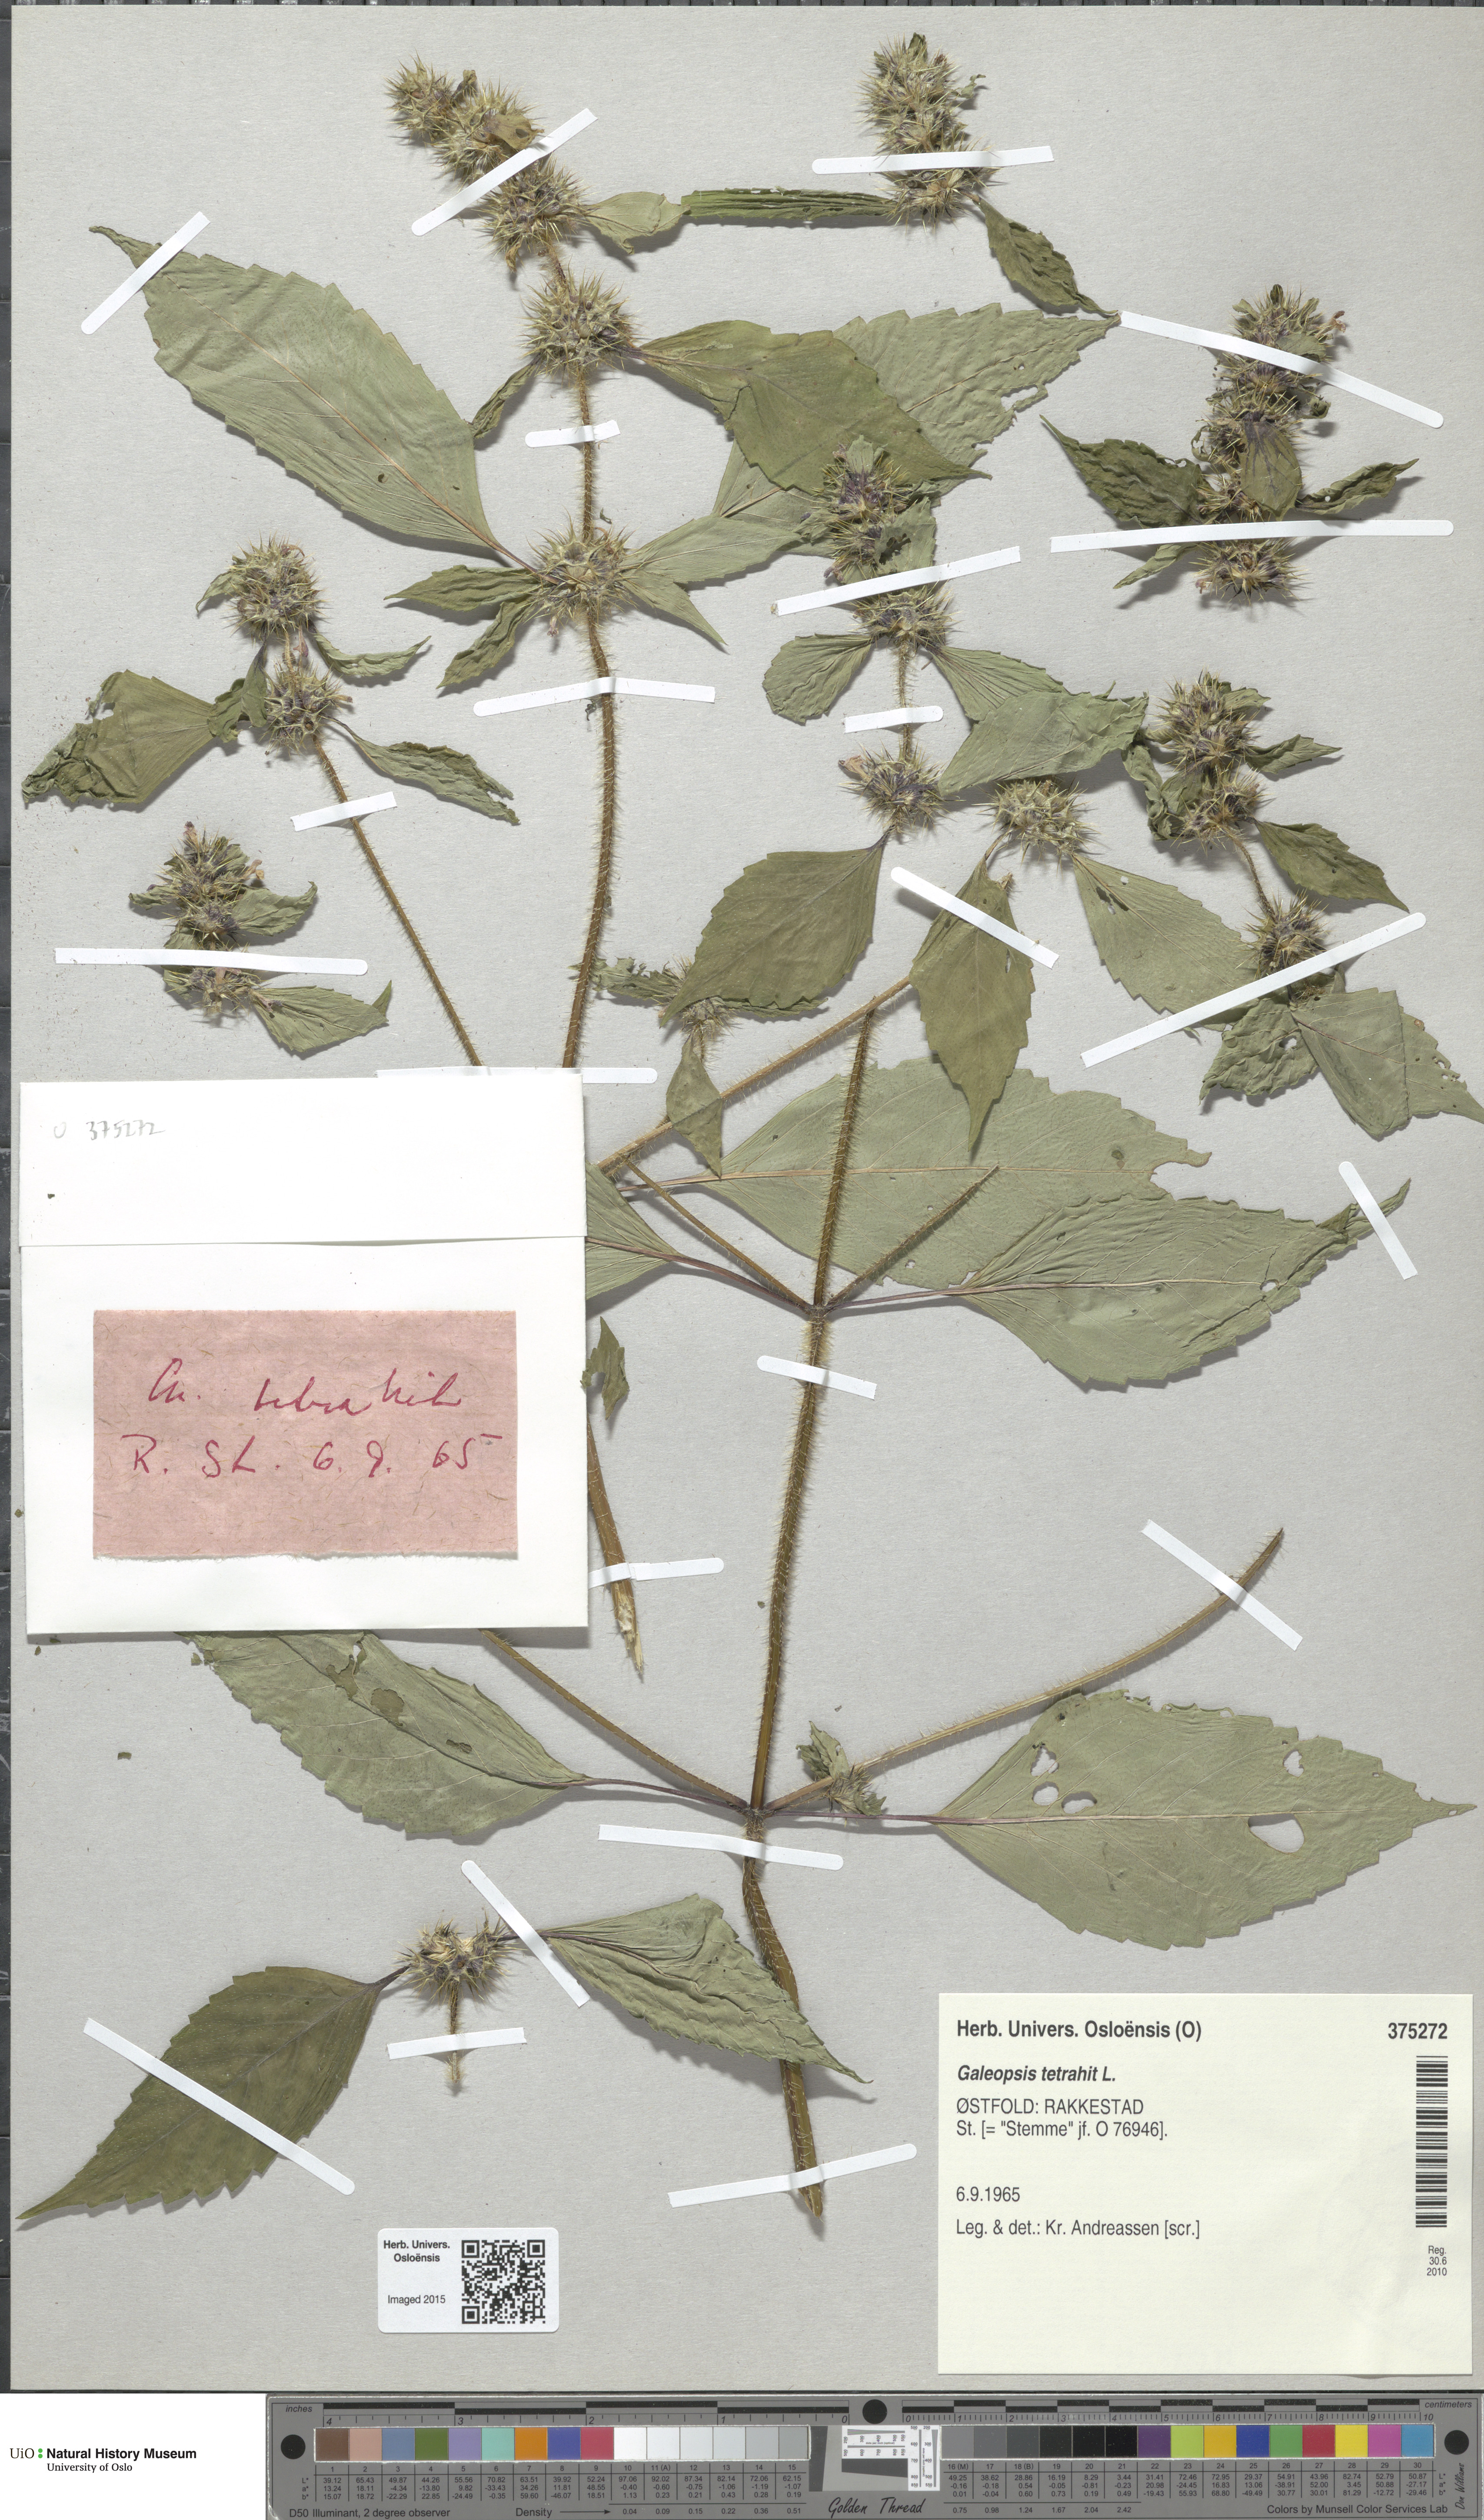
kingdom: Plantae
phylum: Tracheophyta
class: Magnoliopsida
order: Lamiales
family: Lamiaceae
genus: Galeopsis
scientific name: Galeopsis tetrahit
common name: Common hemp-nettle
